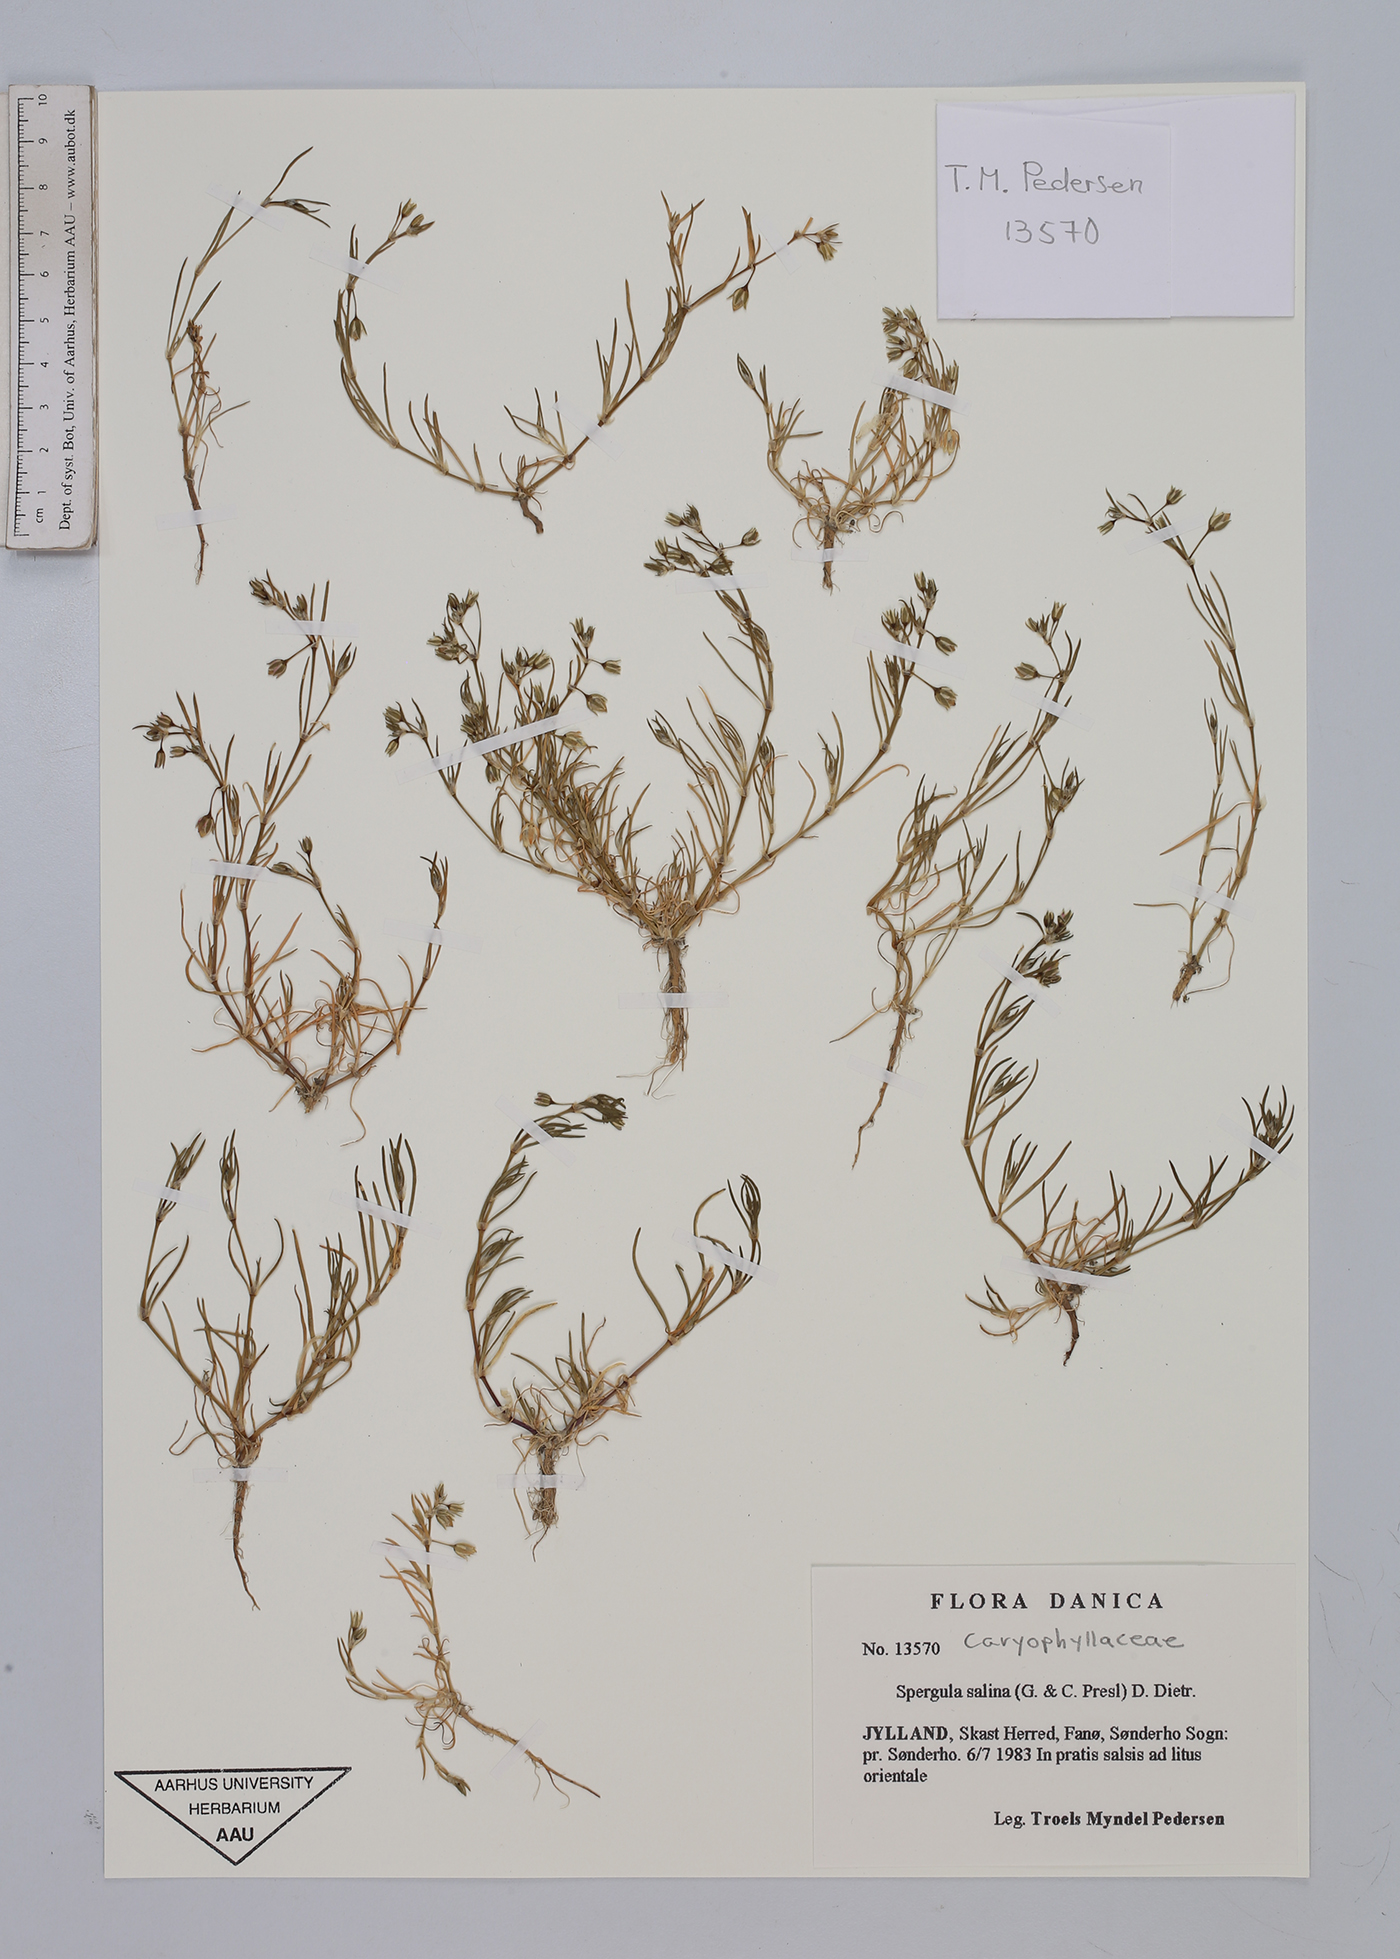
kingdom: Plantae
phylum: Tracheophyta
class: Magnoliopsida
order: Caryophyllales
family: Caryophyllaceae
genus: Spergularia
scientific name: Spergularia marina
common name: Lesser sea-spurrey
